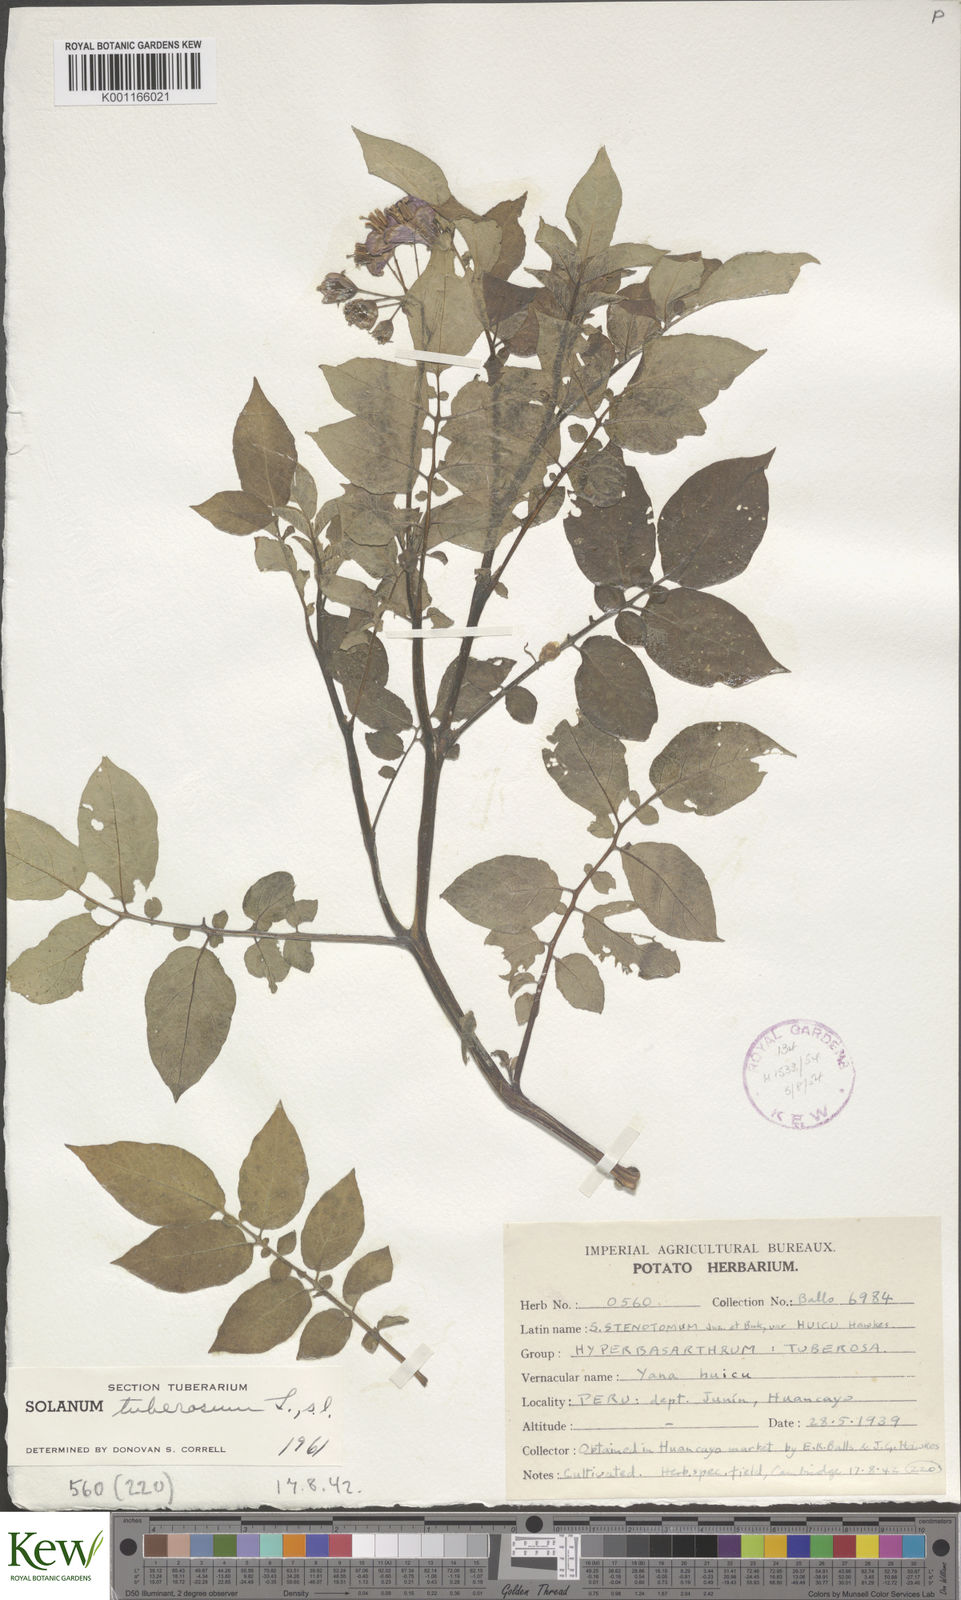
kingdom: Plantae
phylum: Tracheophyta
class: Magnoliopsida
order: Solanales
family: Solanaceae
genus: Solanum
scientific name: Solanum tuberosum
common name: Potato
